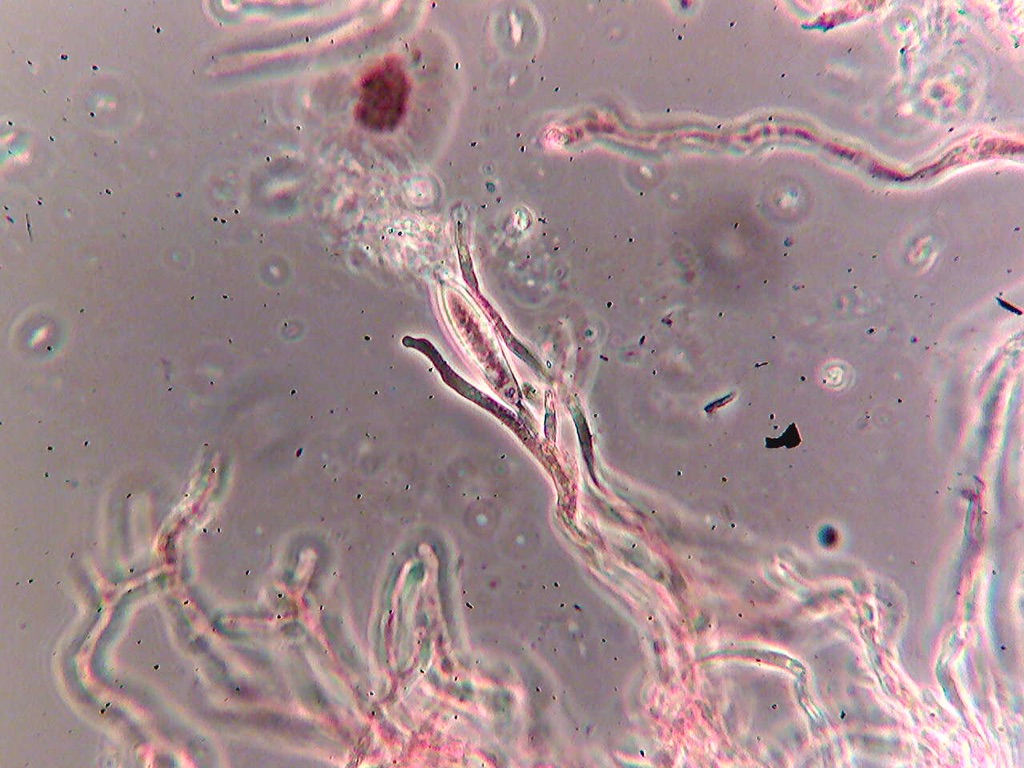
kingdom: Fungi
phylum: Basidiomycota
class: Agaricomycetes
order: Russulales
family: Russulaceae
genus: Russula
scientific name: Russula faustiana
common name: olivengrå skørhat
